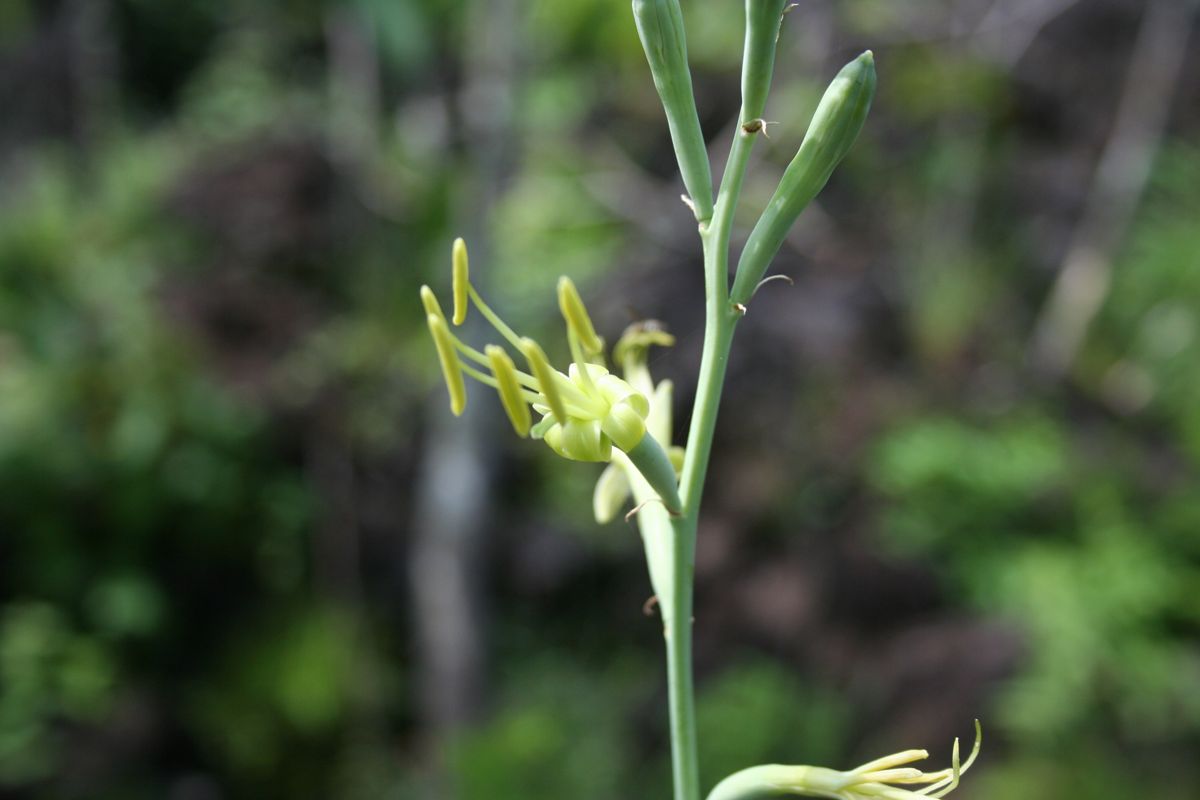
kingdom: Plantae
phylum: Tracheophyta
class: Liliopsida
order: Asparagales
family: Asparagaceae
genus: Agave
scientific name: Agave scabra
